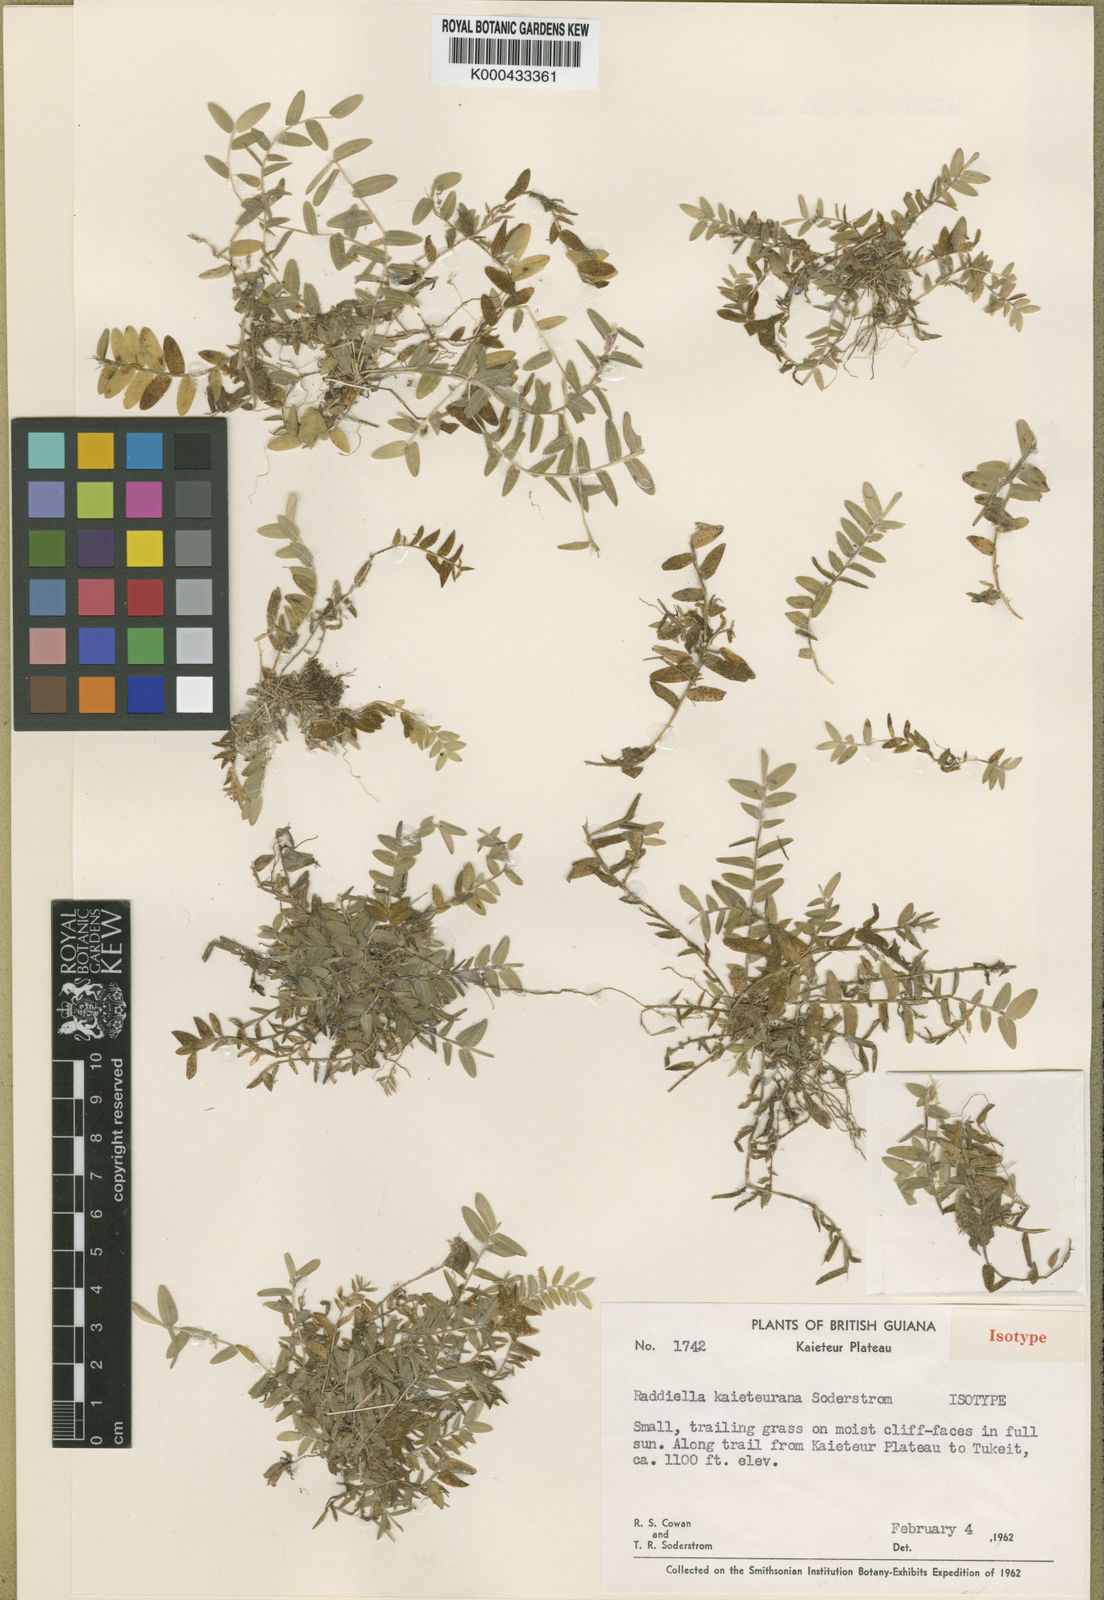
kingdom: Plantae
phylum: Tracheophyta
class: Liliopsida
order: Poales
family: Poaceae
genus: Raddiella
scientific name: Raddiella kaieteurana
